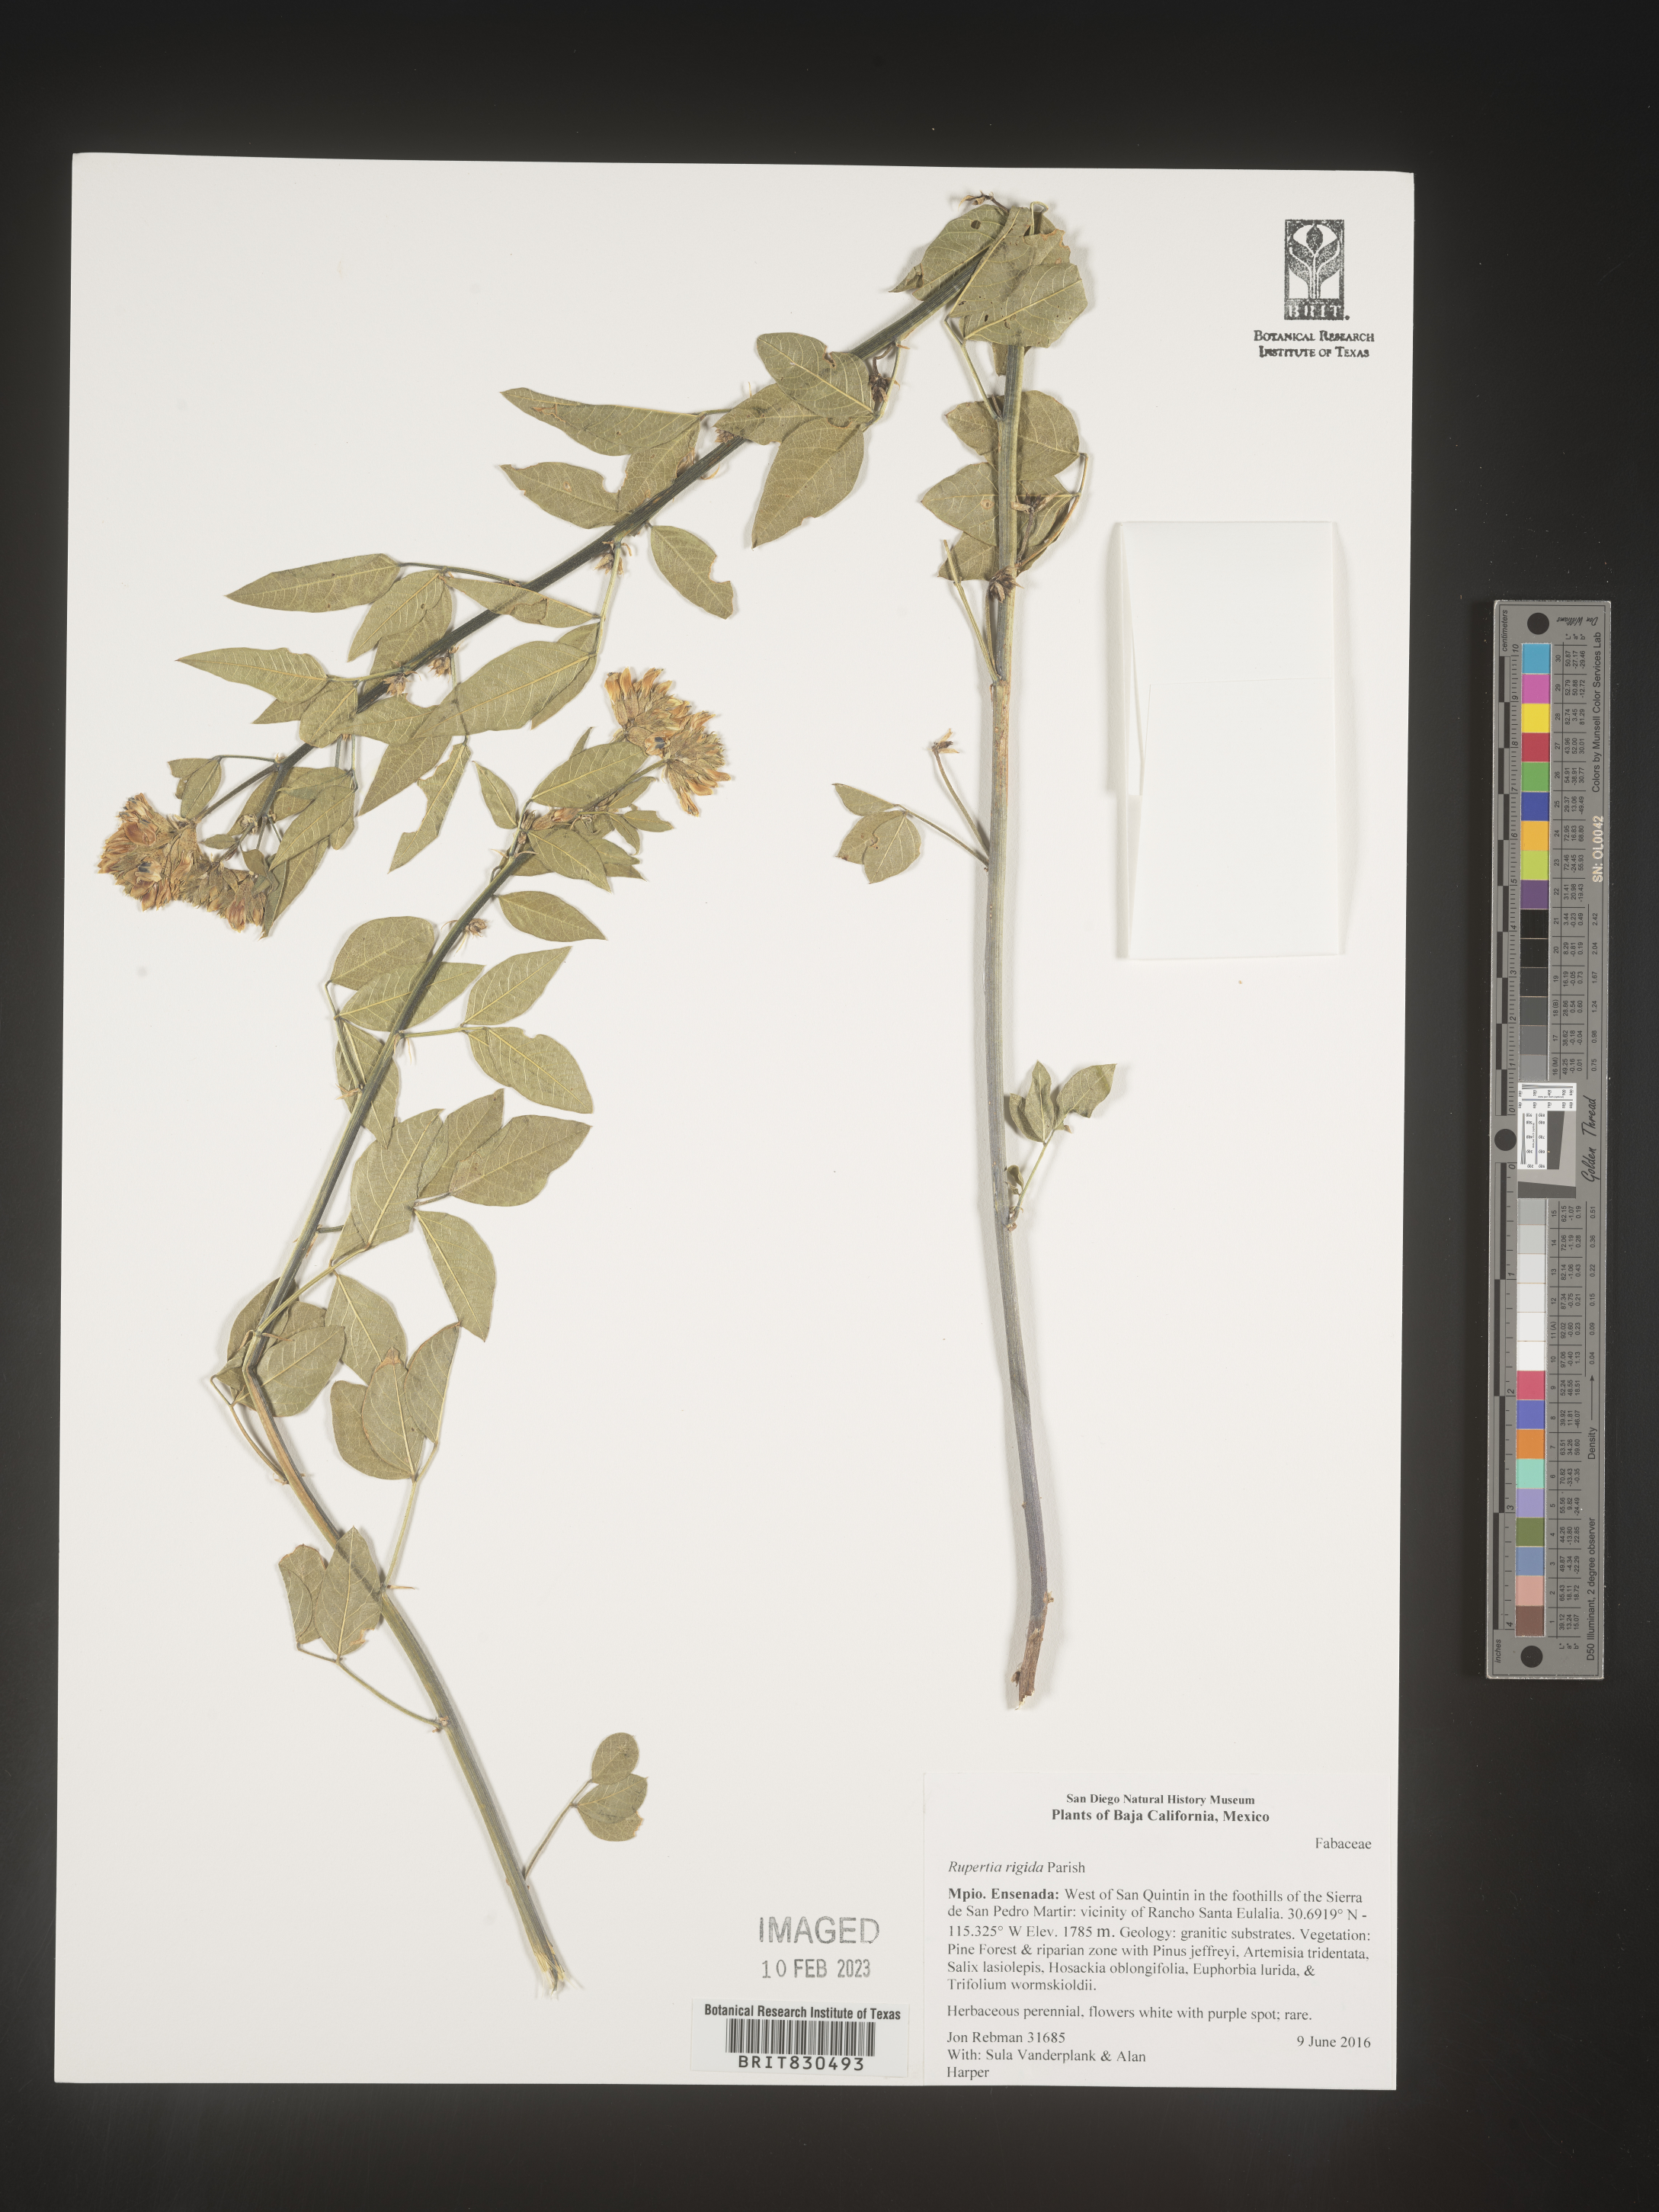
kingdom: Plantae
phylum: Tracheophyta
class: Magnoliopsida
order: Fabales
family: Fabaceae
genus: Rupertia
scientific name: Rupertia
